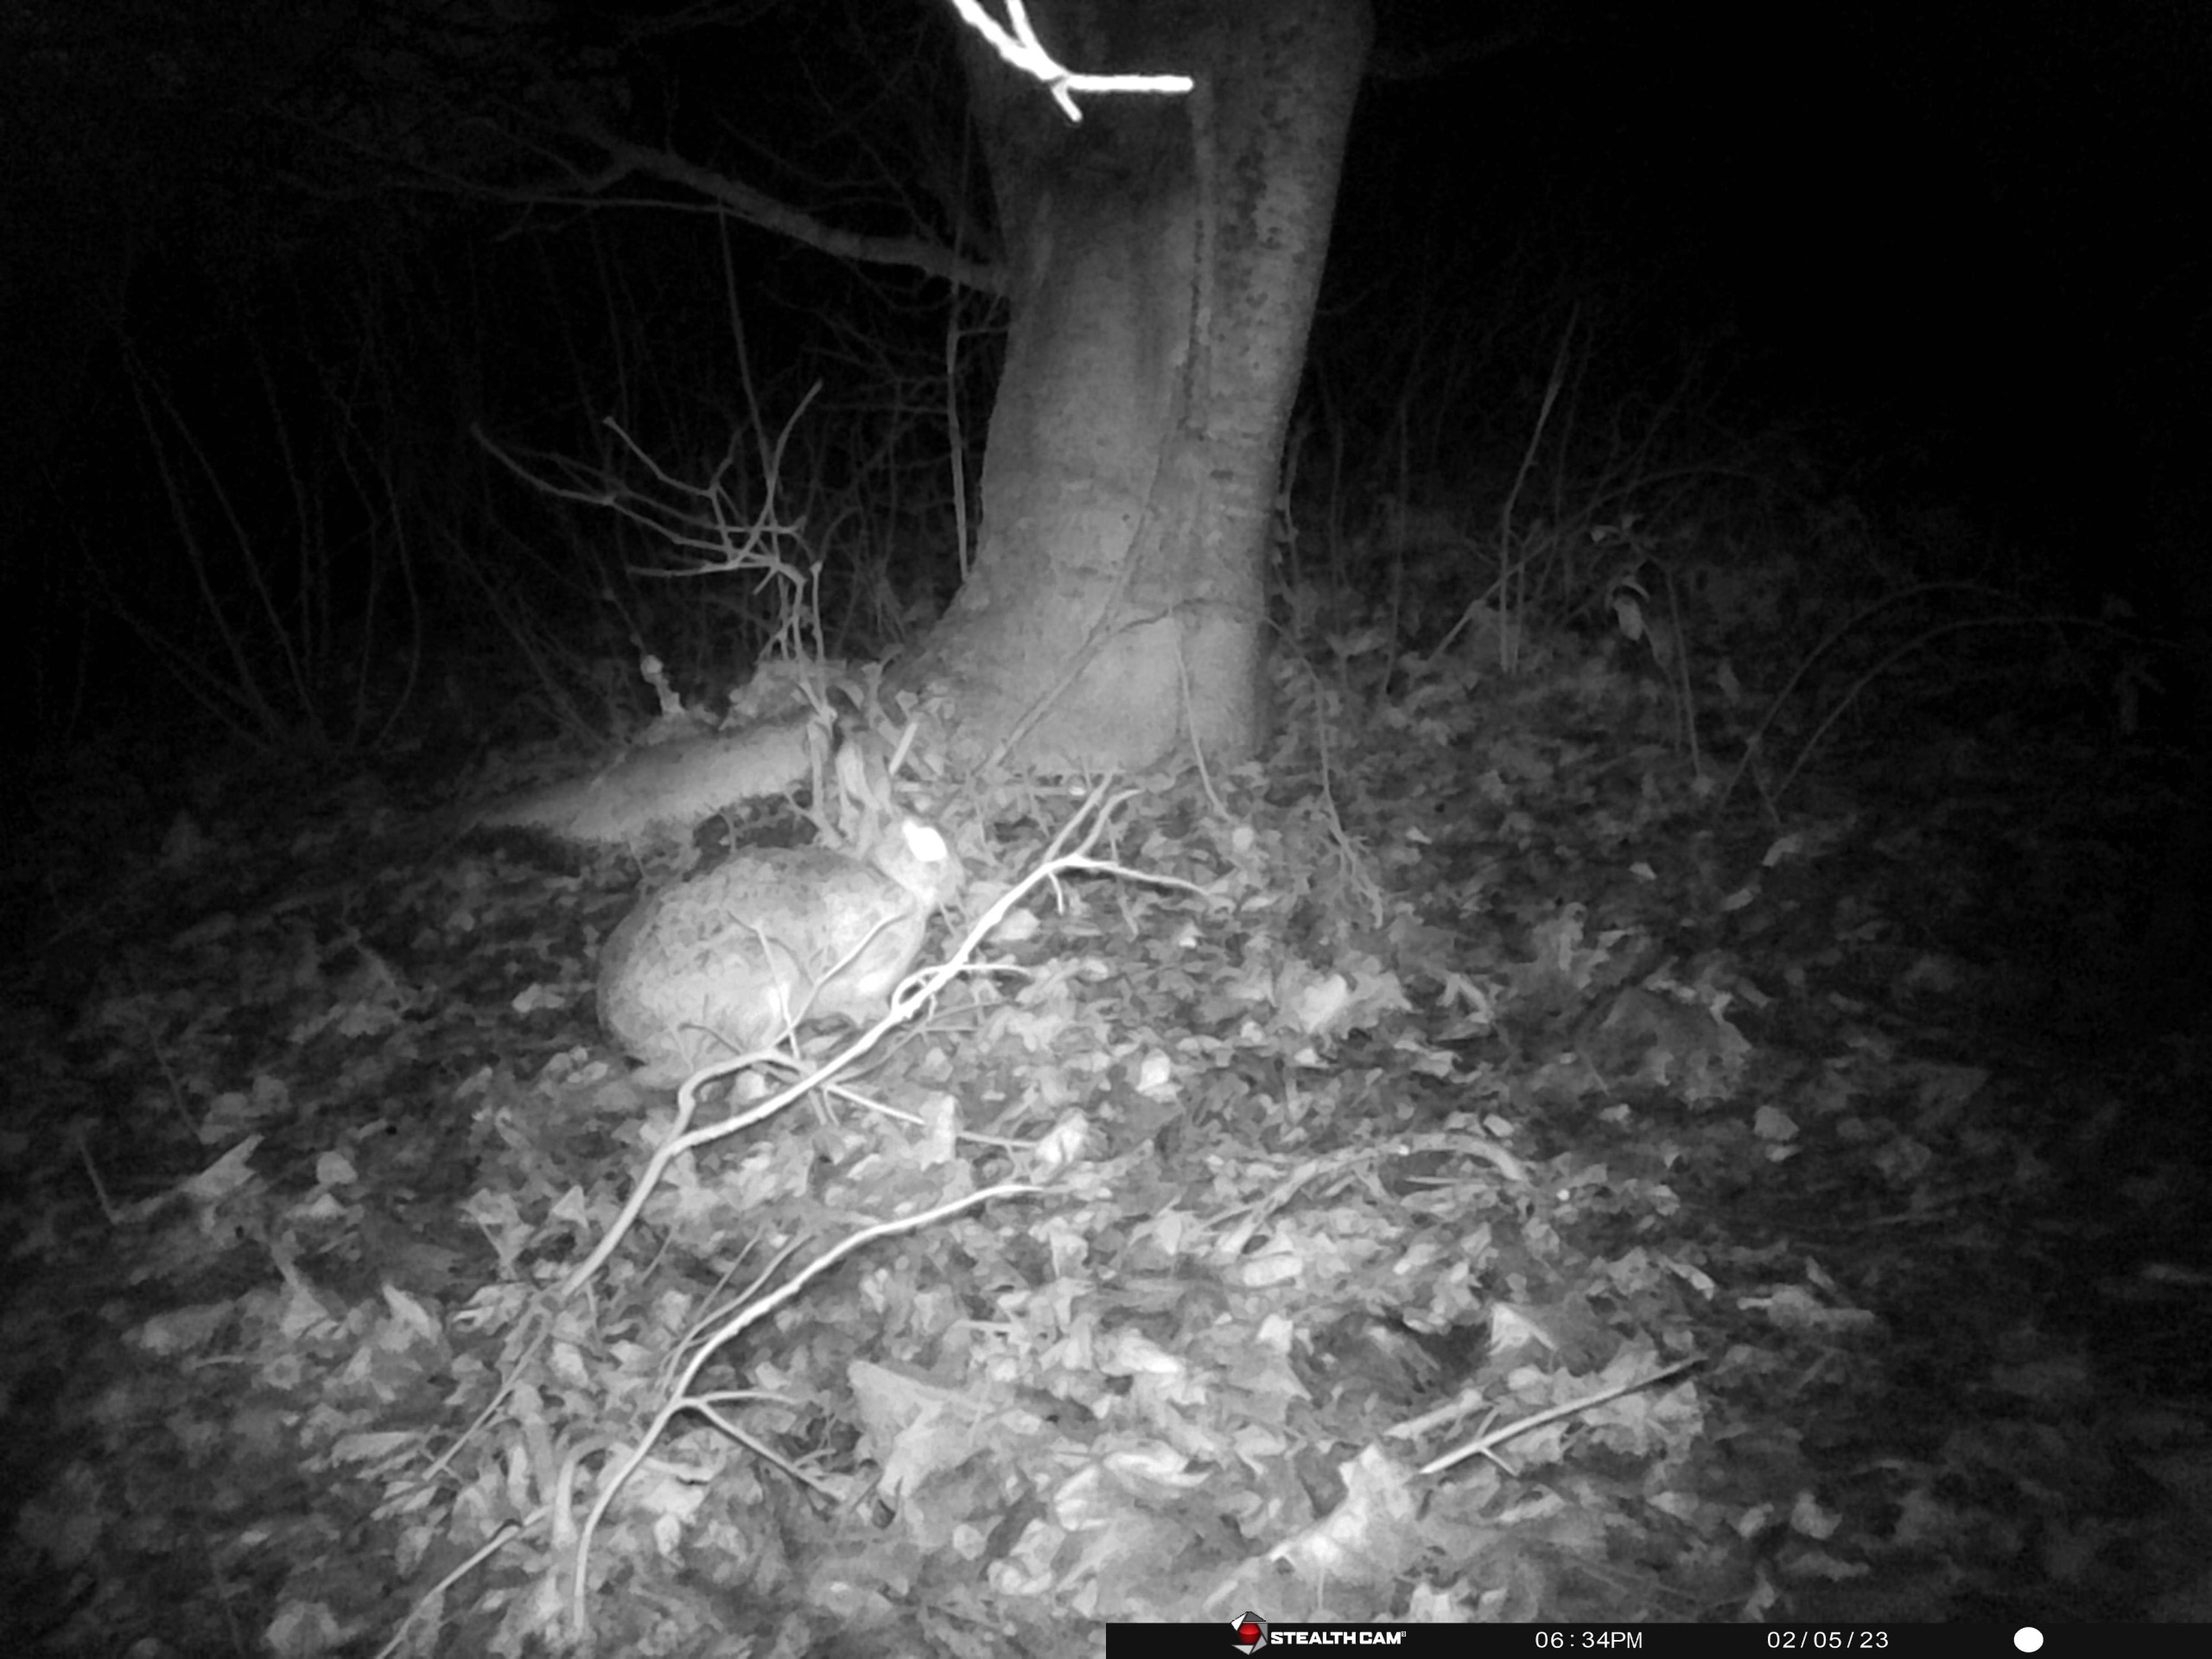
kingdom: Animalia
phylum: Chordata
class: Mammalia
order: Lagomorpha
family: Leporidae
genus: Lepus
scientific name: Lepus europaeus
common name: Hare
